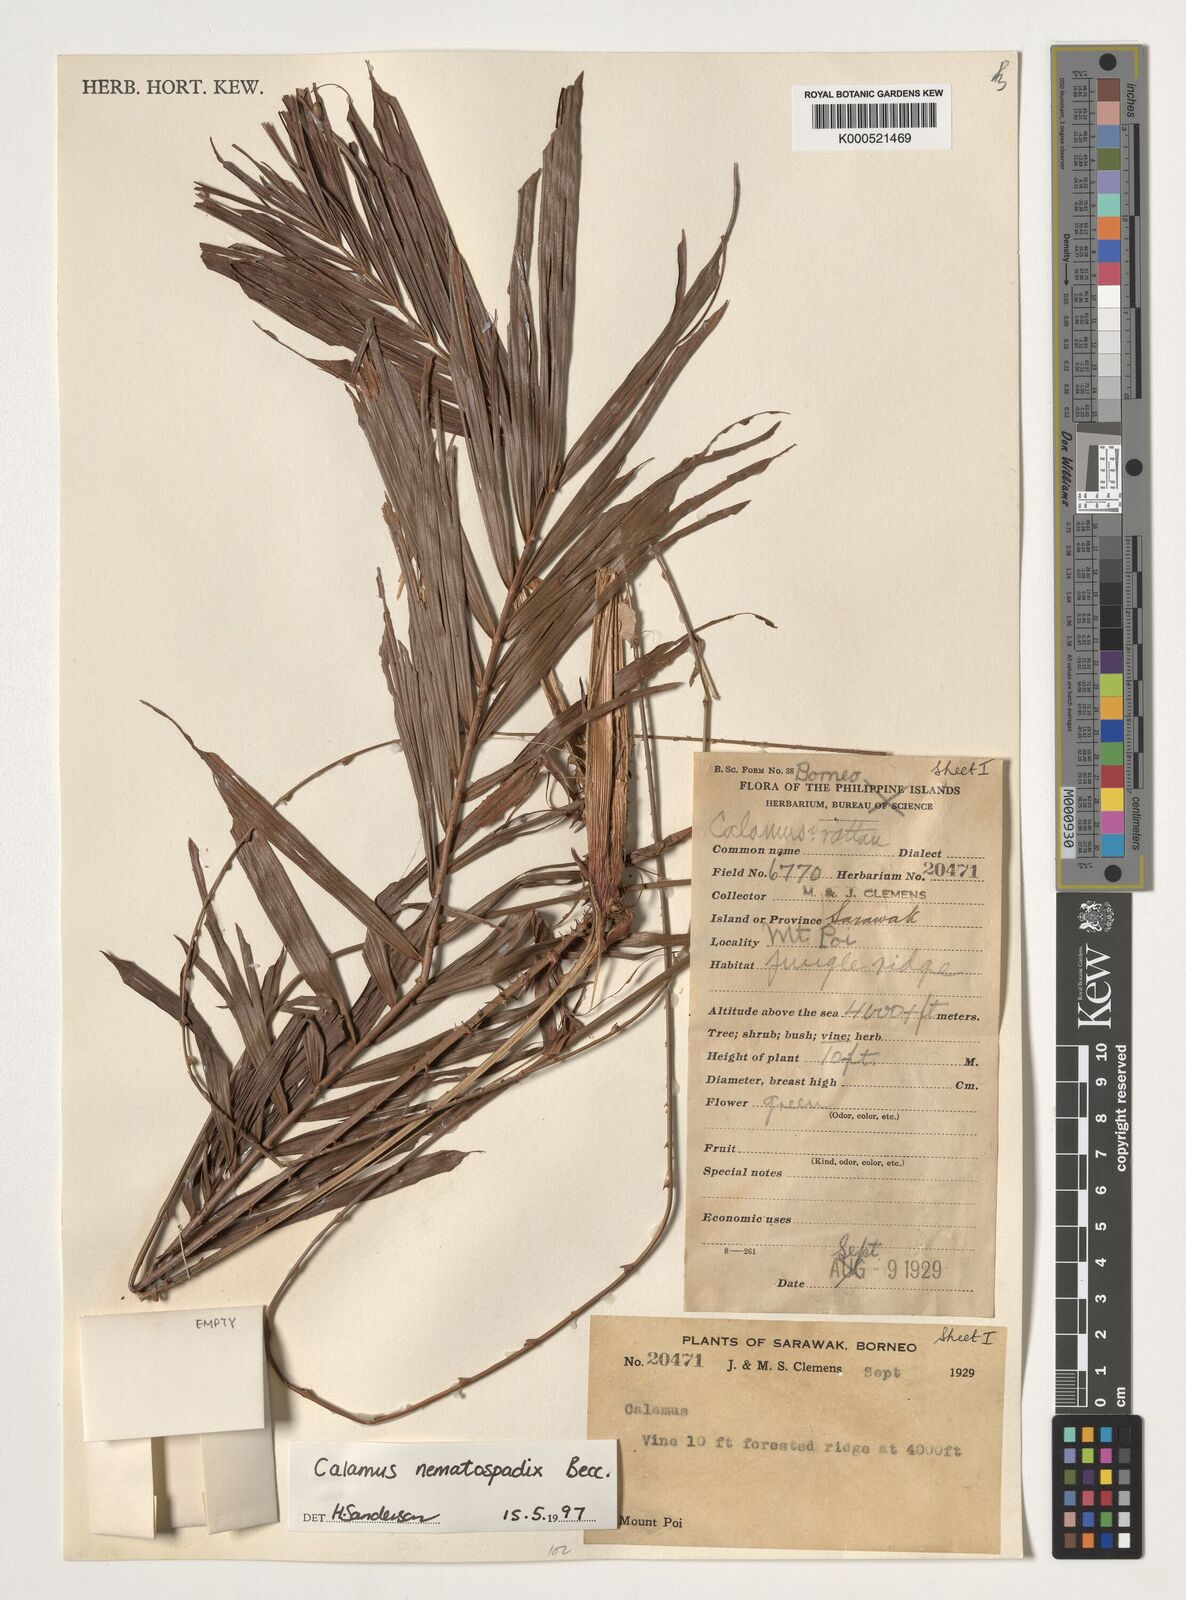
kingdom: Plantae
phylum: Tracheophyta
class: Liliopsida
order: Arecales
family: Arecaceae
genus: Calamus
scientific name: Calamus nematospadix
